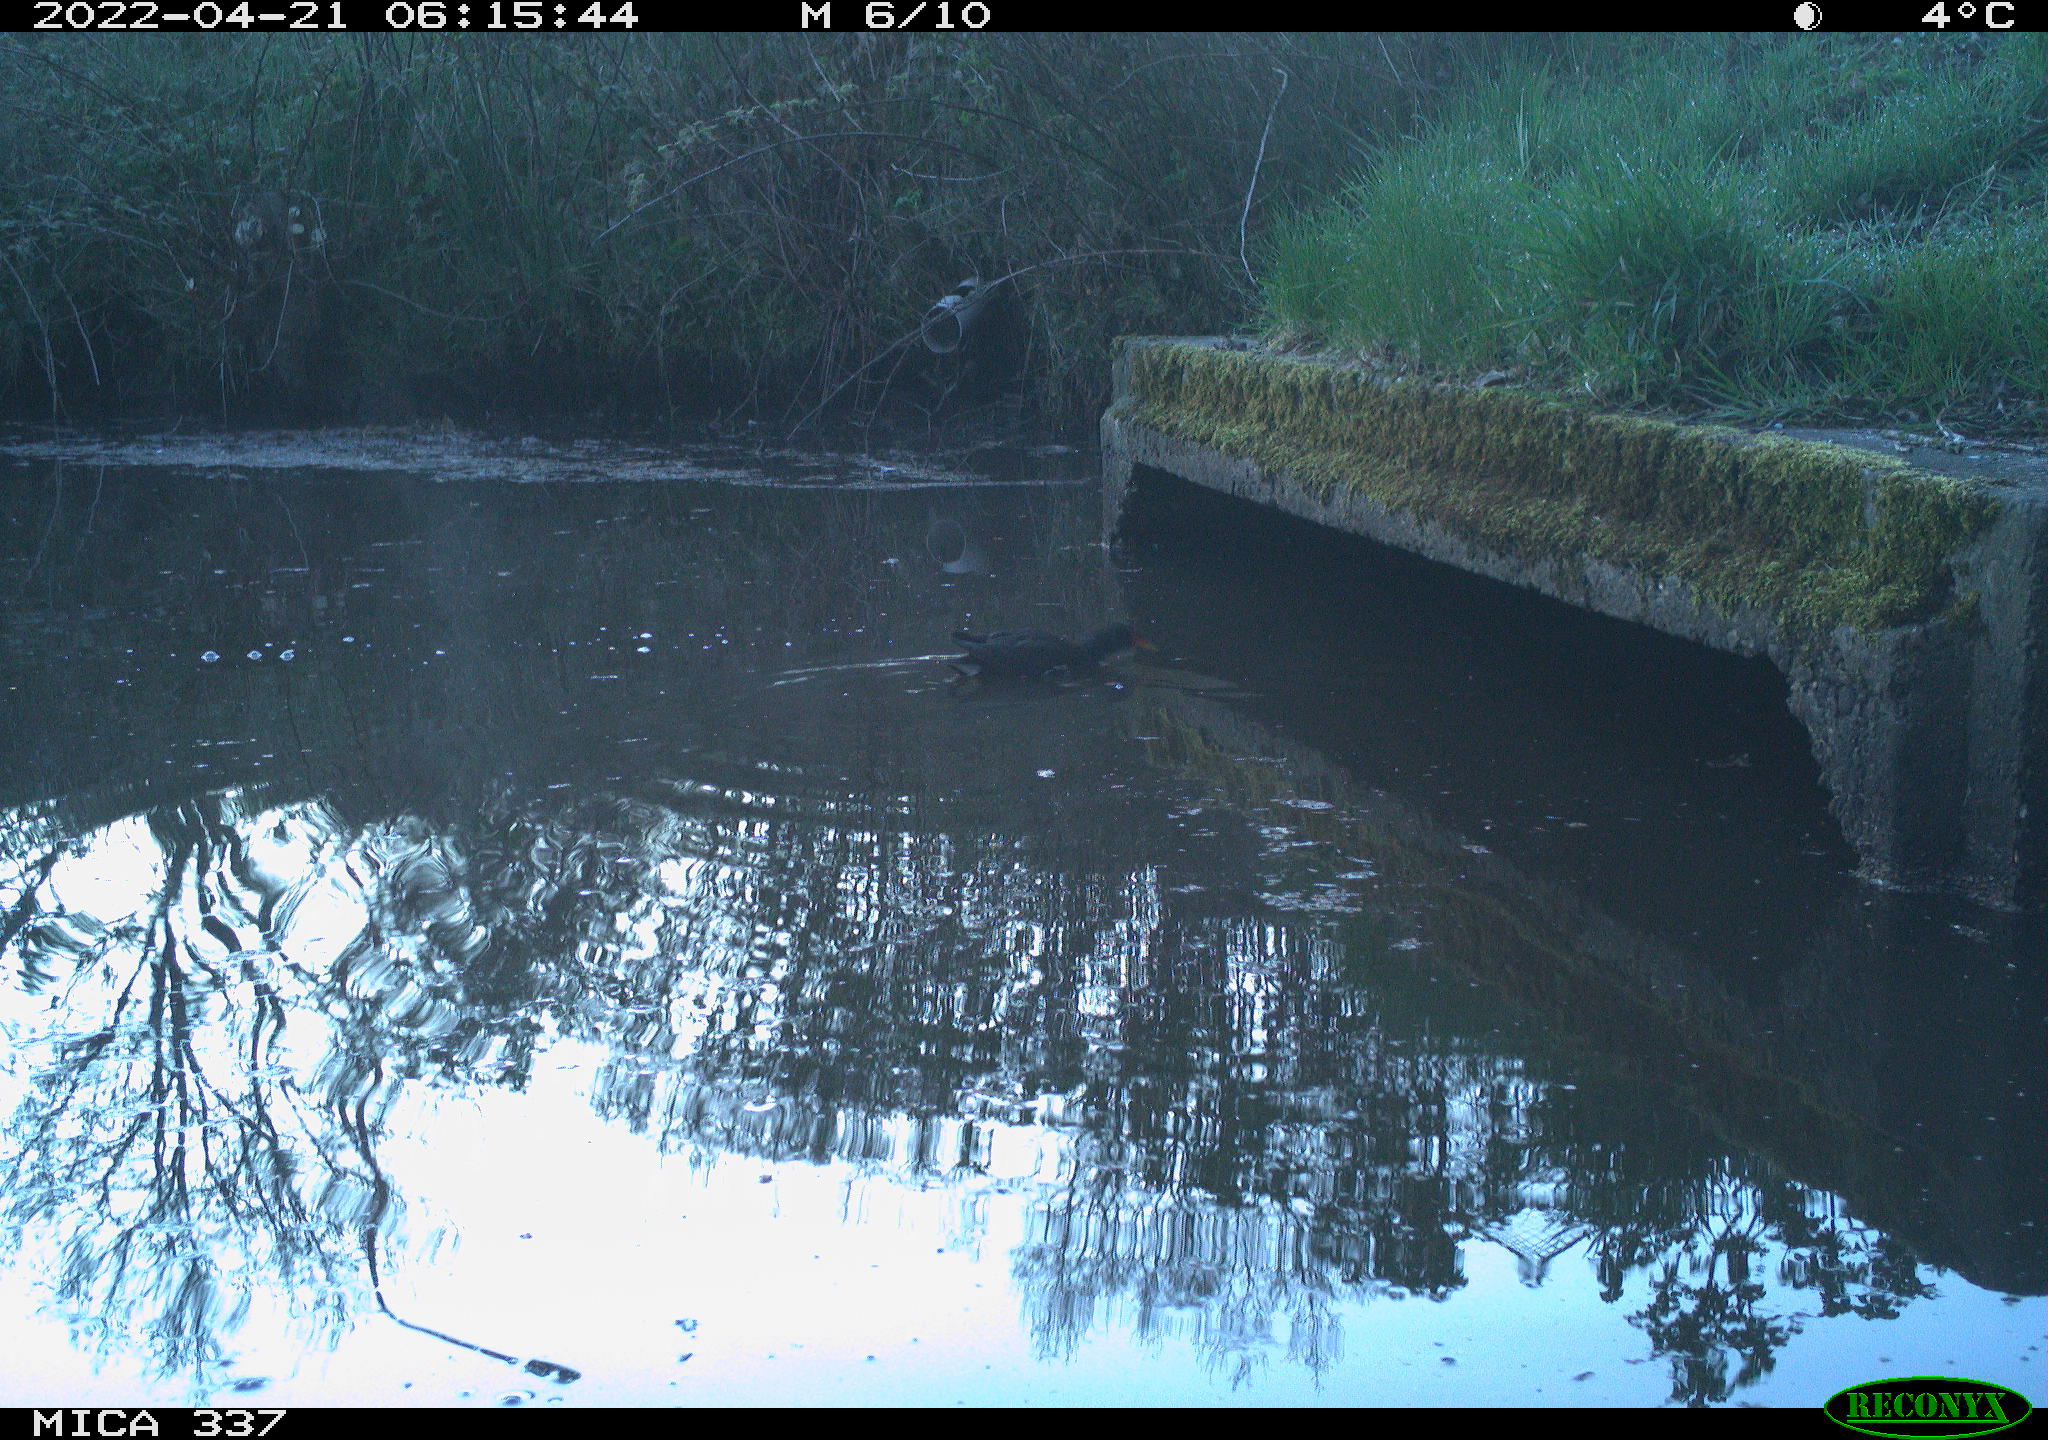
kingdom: Animalia
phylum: Chordata
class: Aves
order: Gruiformes
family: Rallidae
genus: Gallinula
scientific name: Gallinula chloropus
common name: Common moorhen
